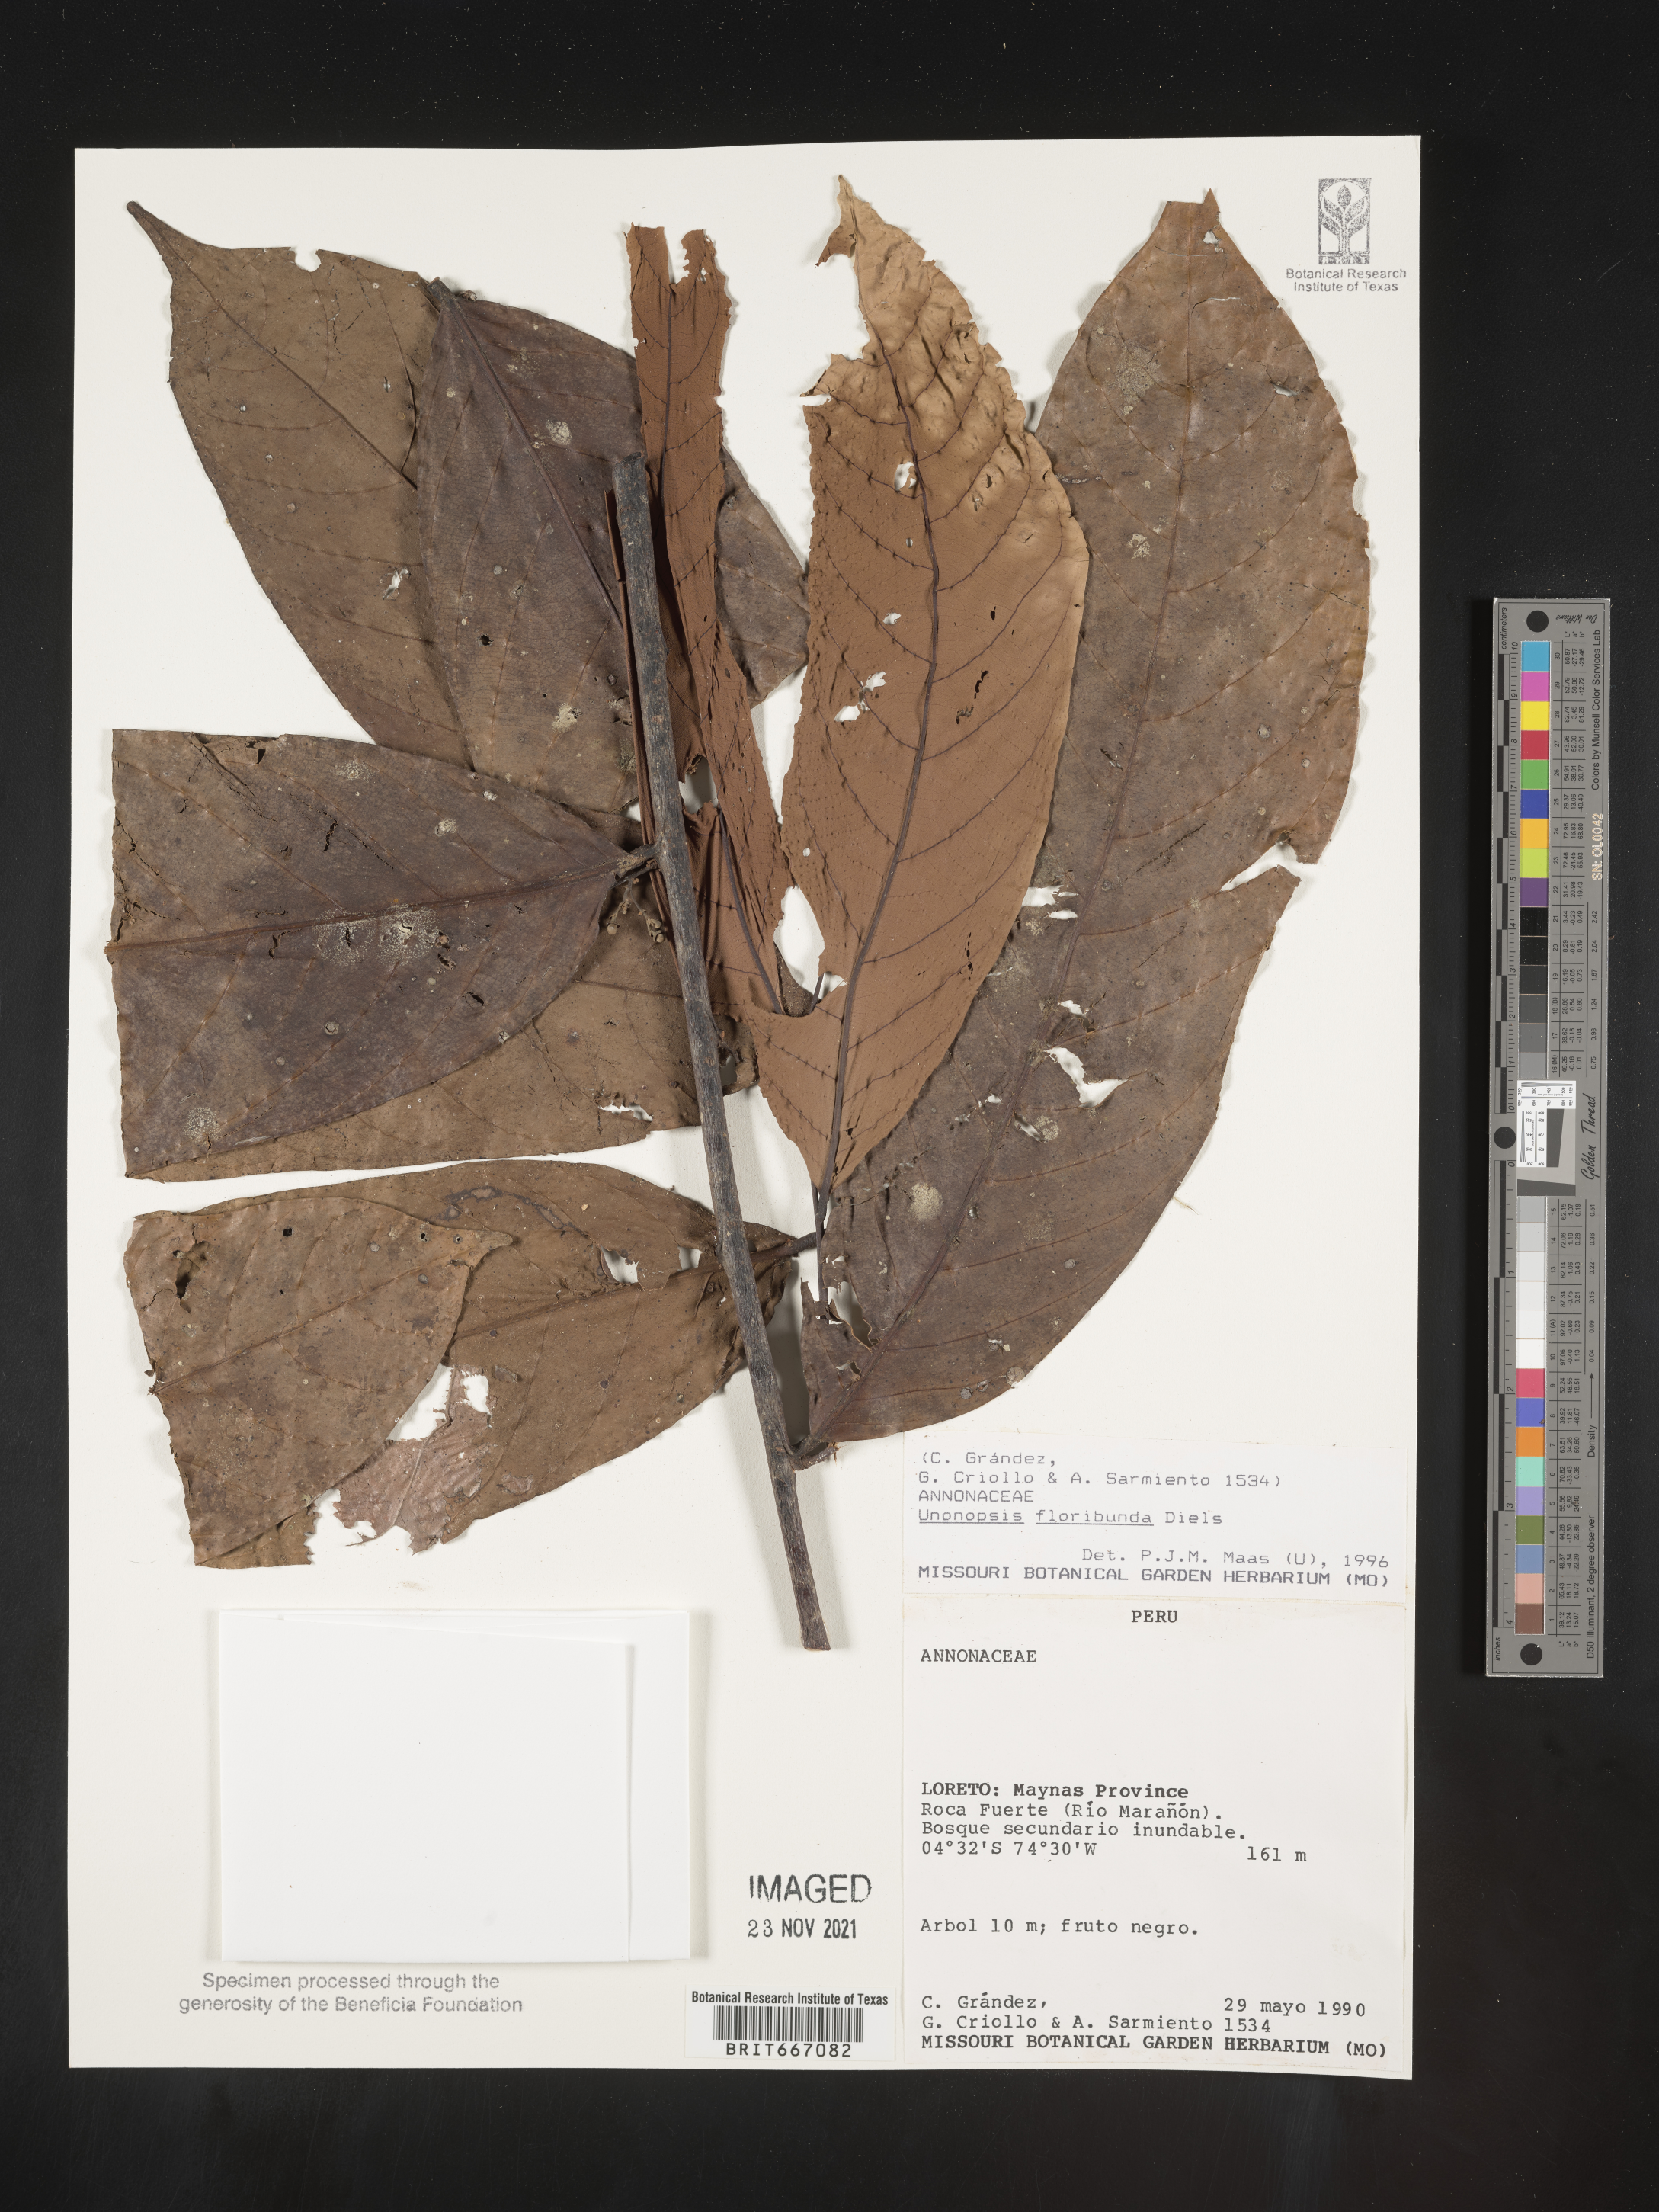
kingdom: Plantae
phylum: Tracheophyta
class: Magnoliopsida
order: Magnoliales
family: Annonaceae
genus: Unonopsis
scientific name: Unonopsis
